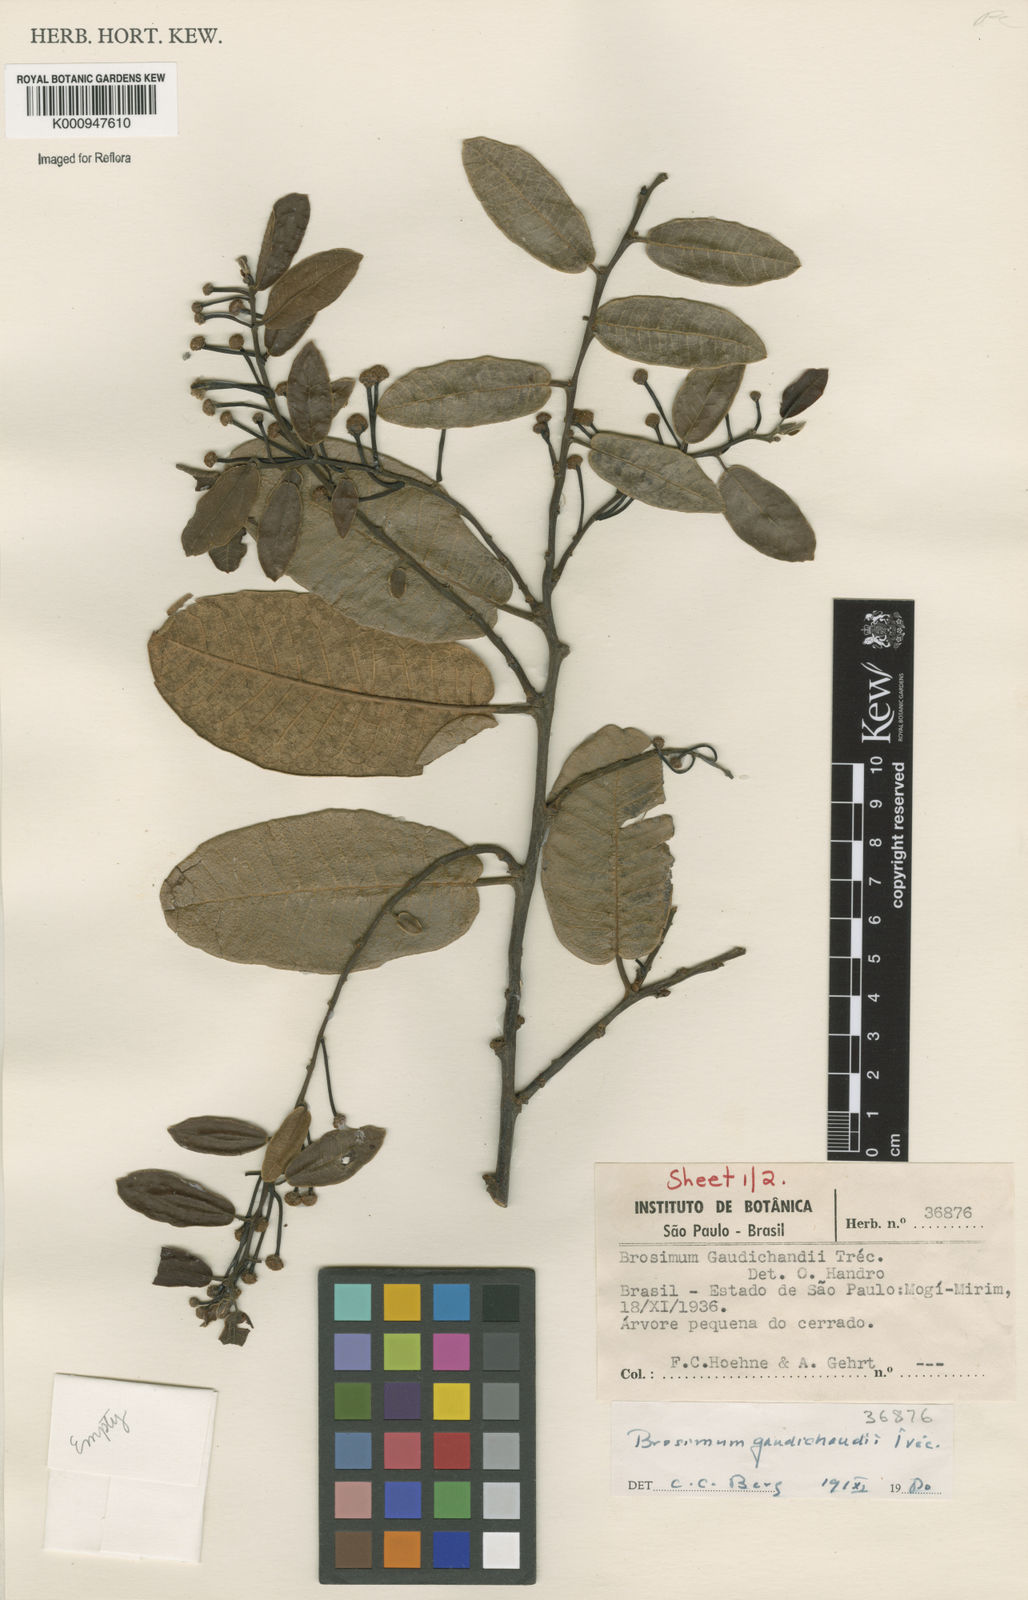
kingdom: Plantae
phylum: Tracheophyta
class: Magnoliopsida
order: Rosales
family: Moraceae
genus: Brosimum
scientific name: Brosimum
